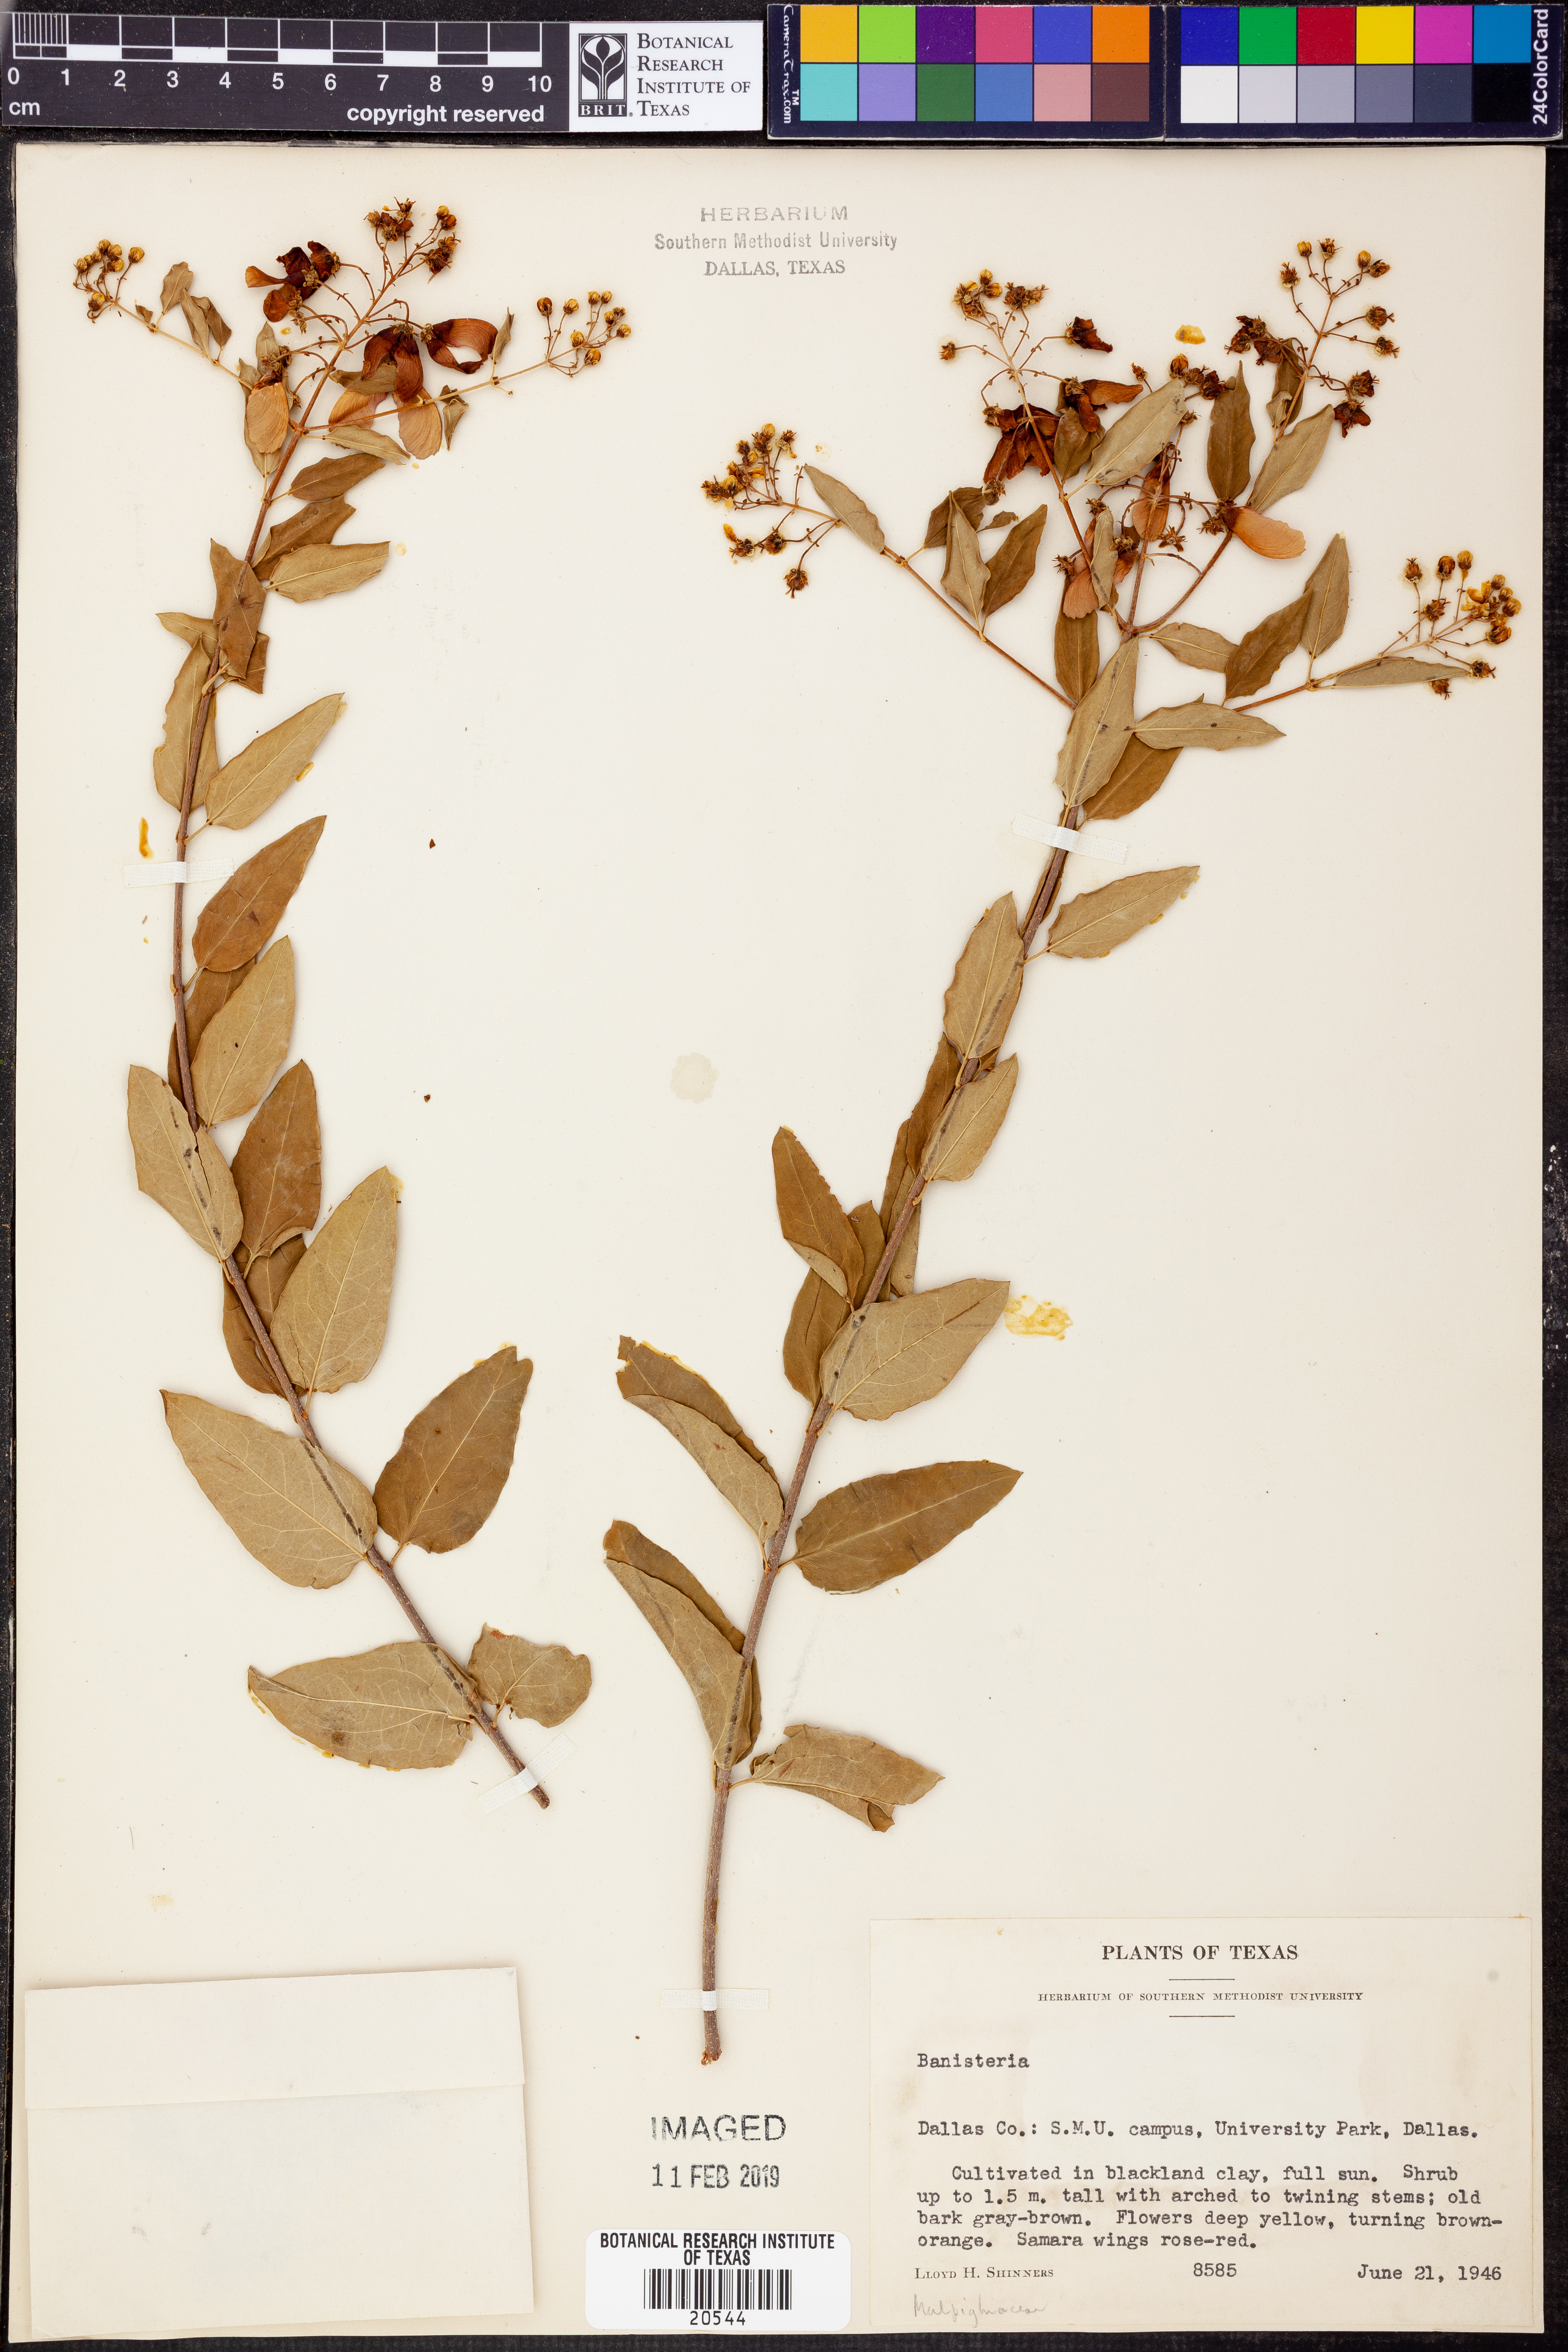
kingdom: Plantae
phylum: Tracheophyta
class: Magnoliopsida
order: Malpighiales
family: Malpighiaceae
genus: Heteropterys
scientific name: Heteropterys
